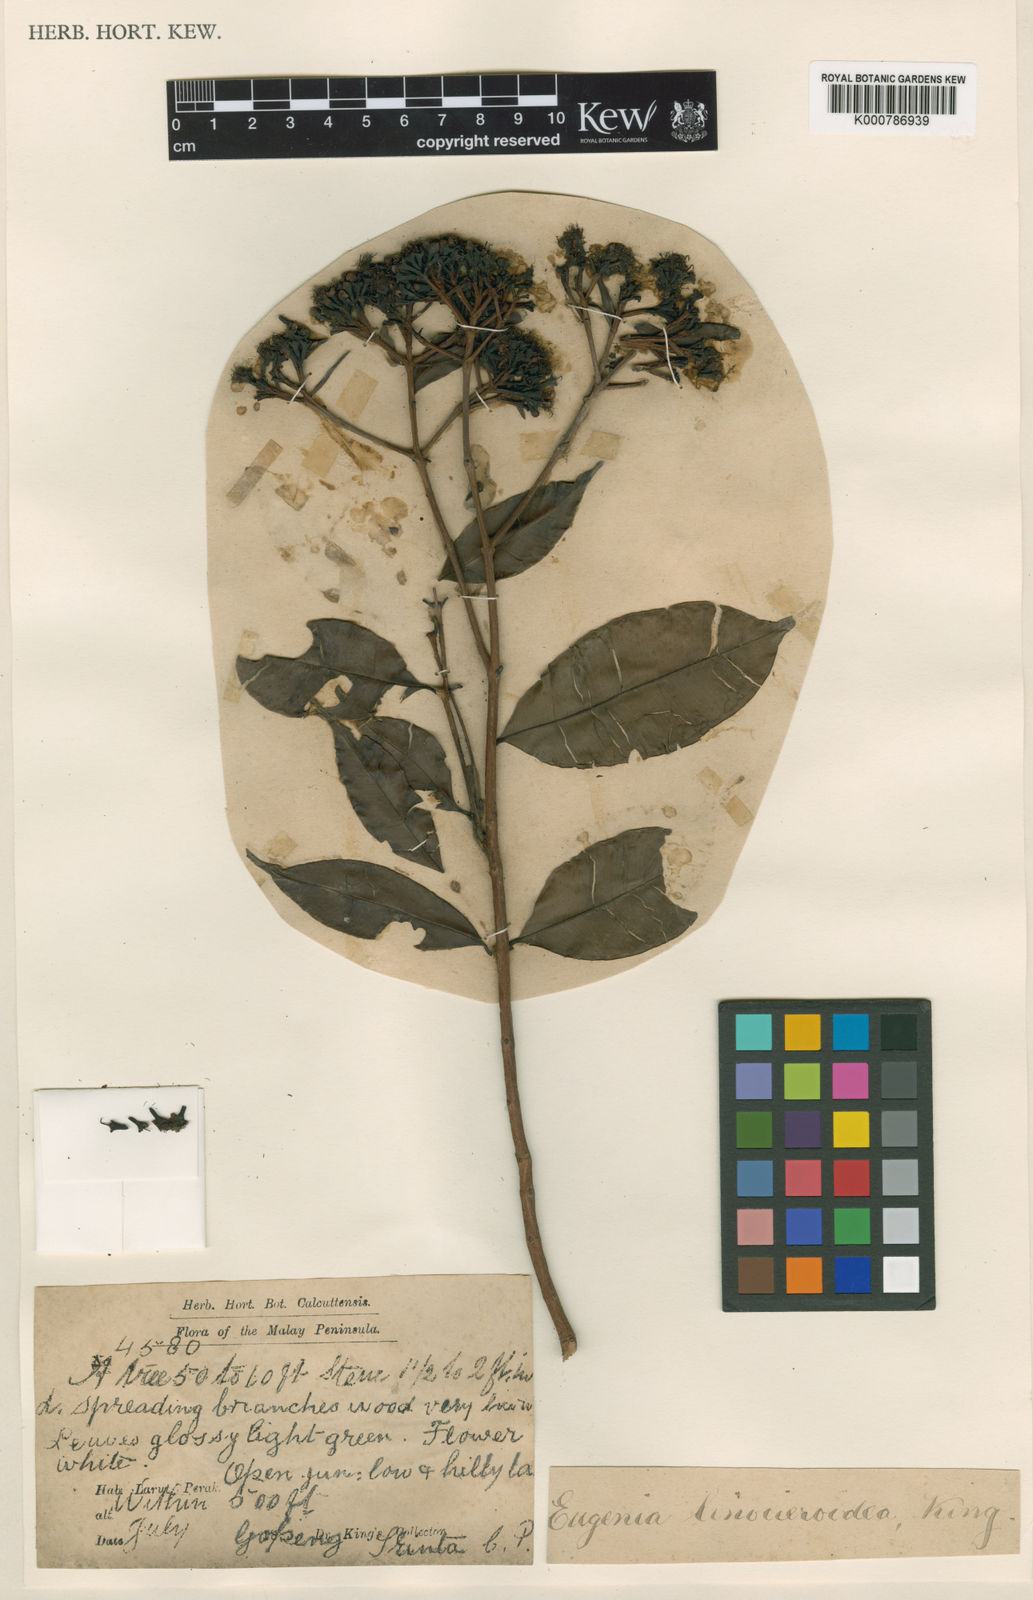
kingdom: Plantae
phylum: Tracheophyta
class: Magnoliopsida
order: Myrtales
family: Myrtaceae
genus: Syzygium
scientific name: Syzygium linocieroideum
